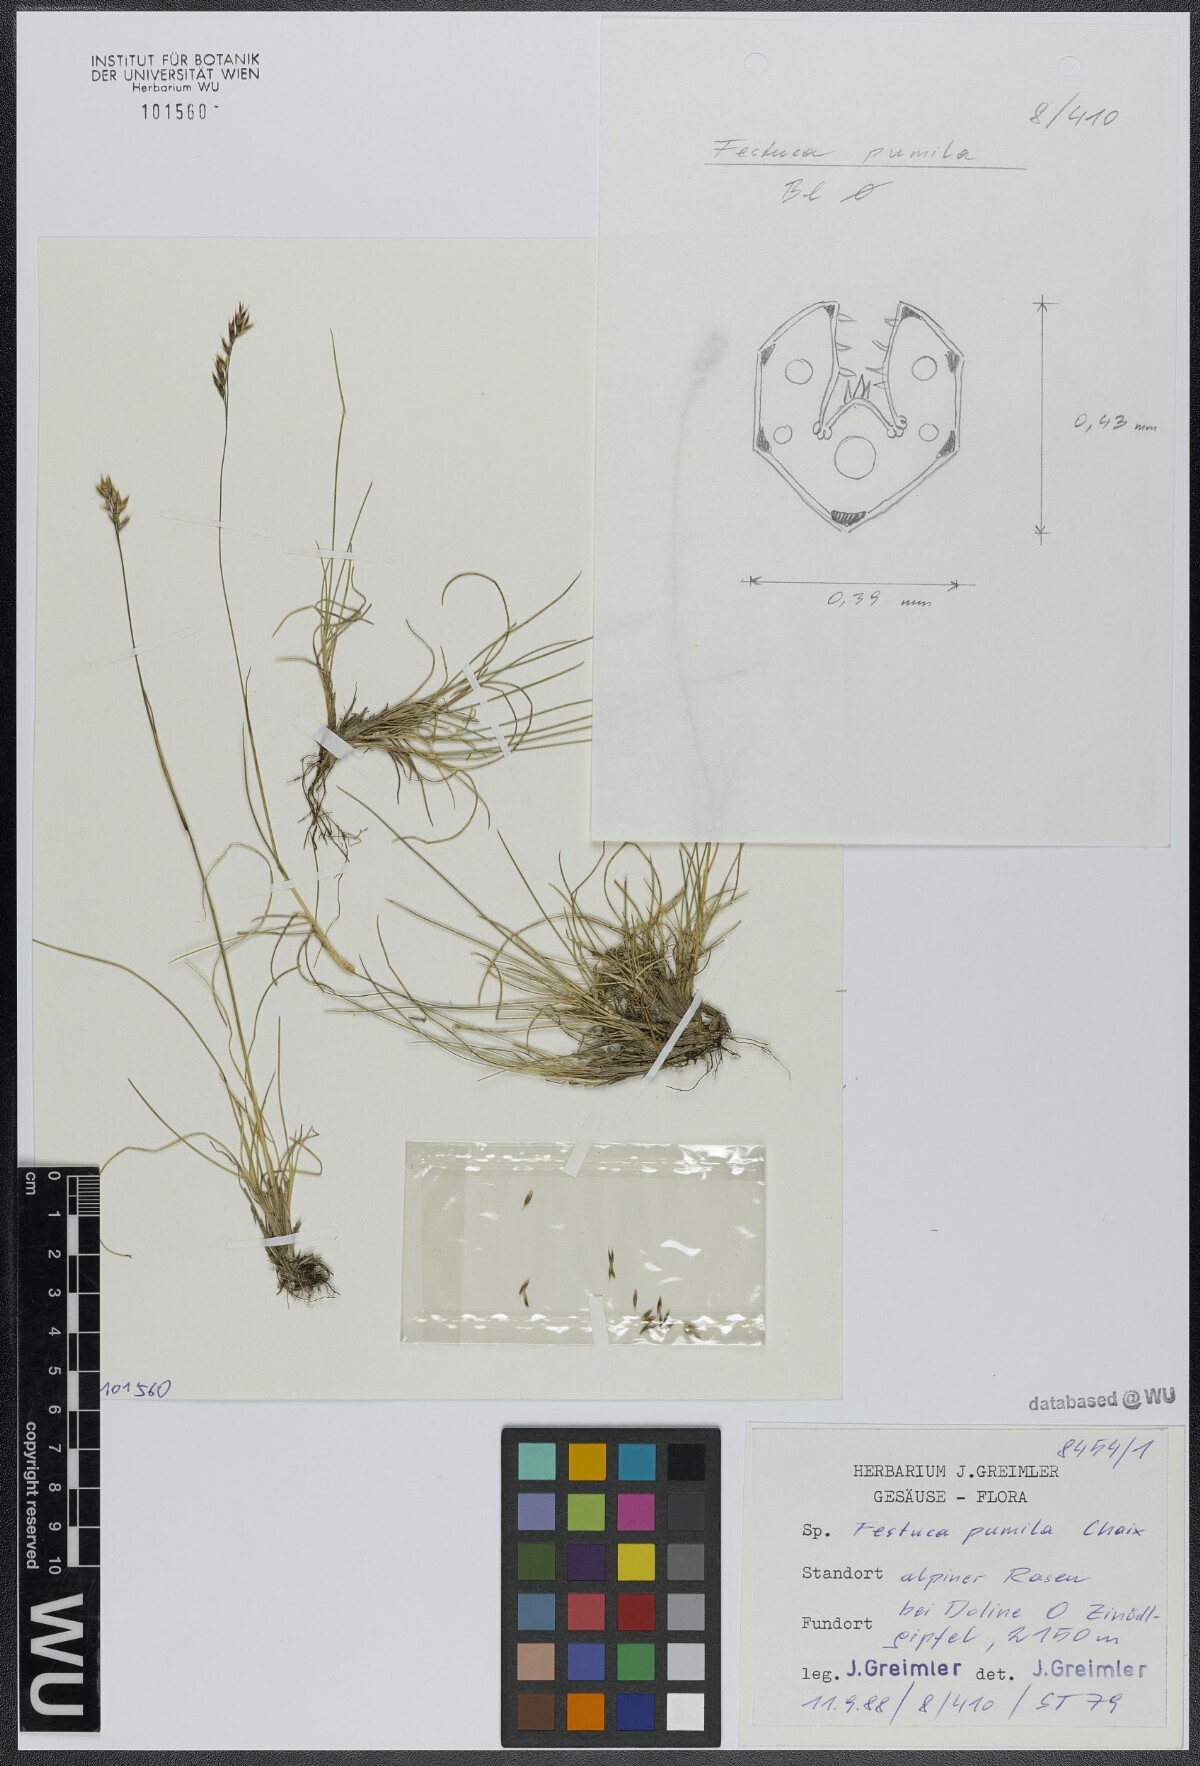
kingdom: Plantae
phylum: Tracheophyta
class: Liliopsida
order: Poales
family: Poaceae
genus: Festuca
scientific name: Festuca quadriflora
